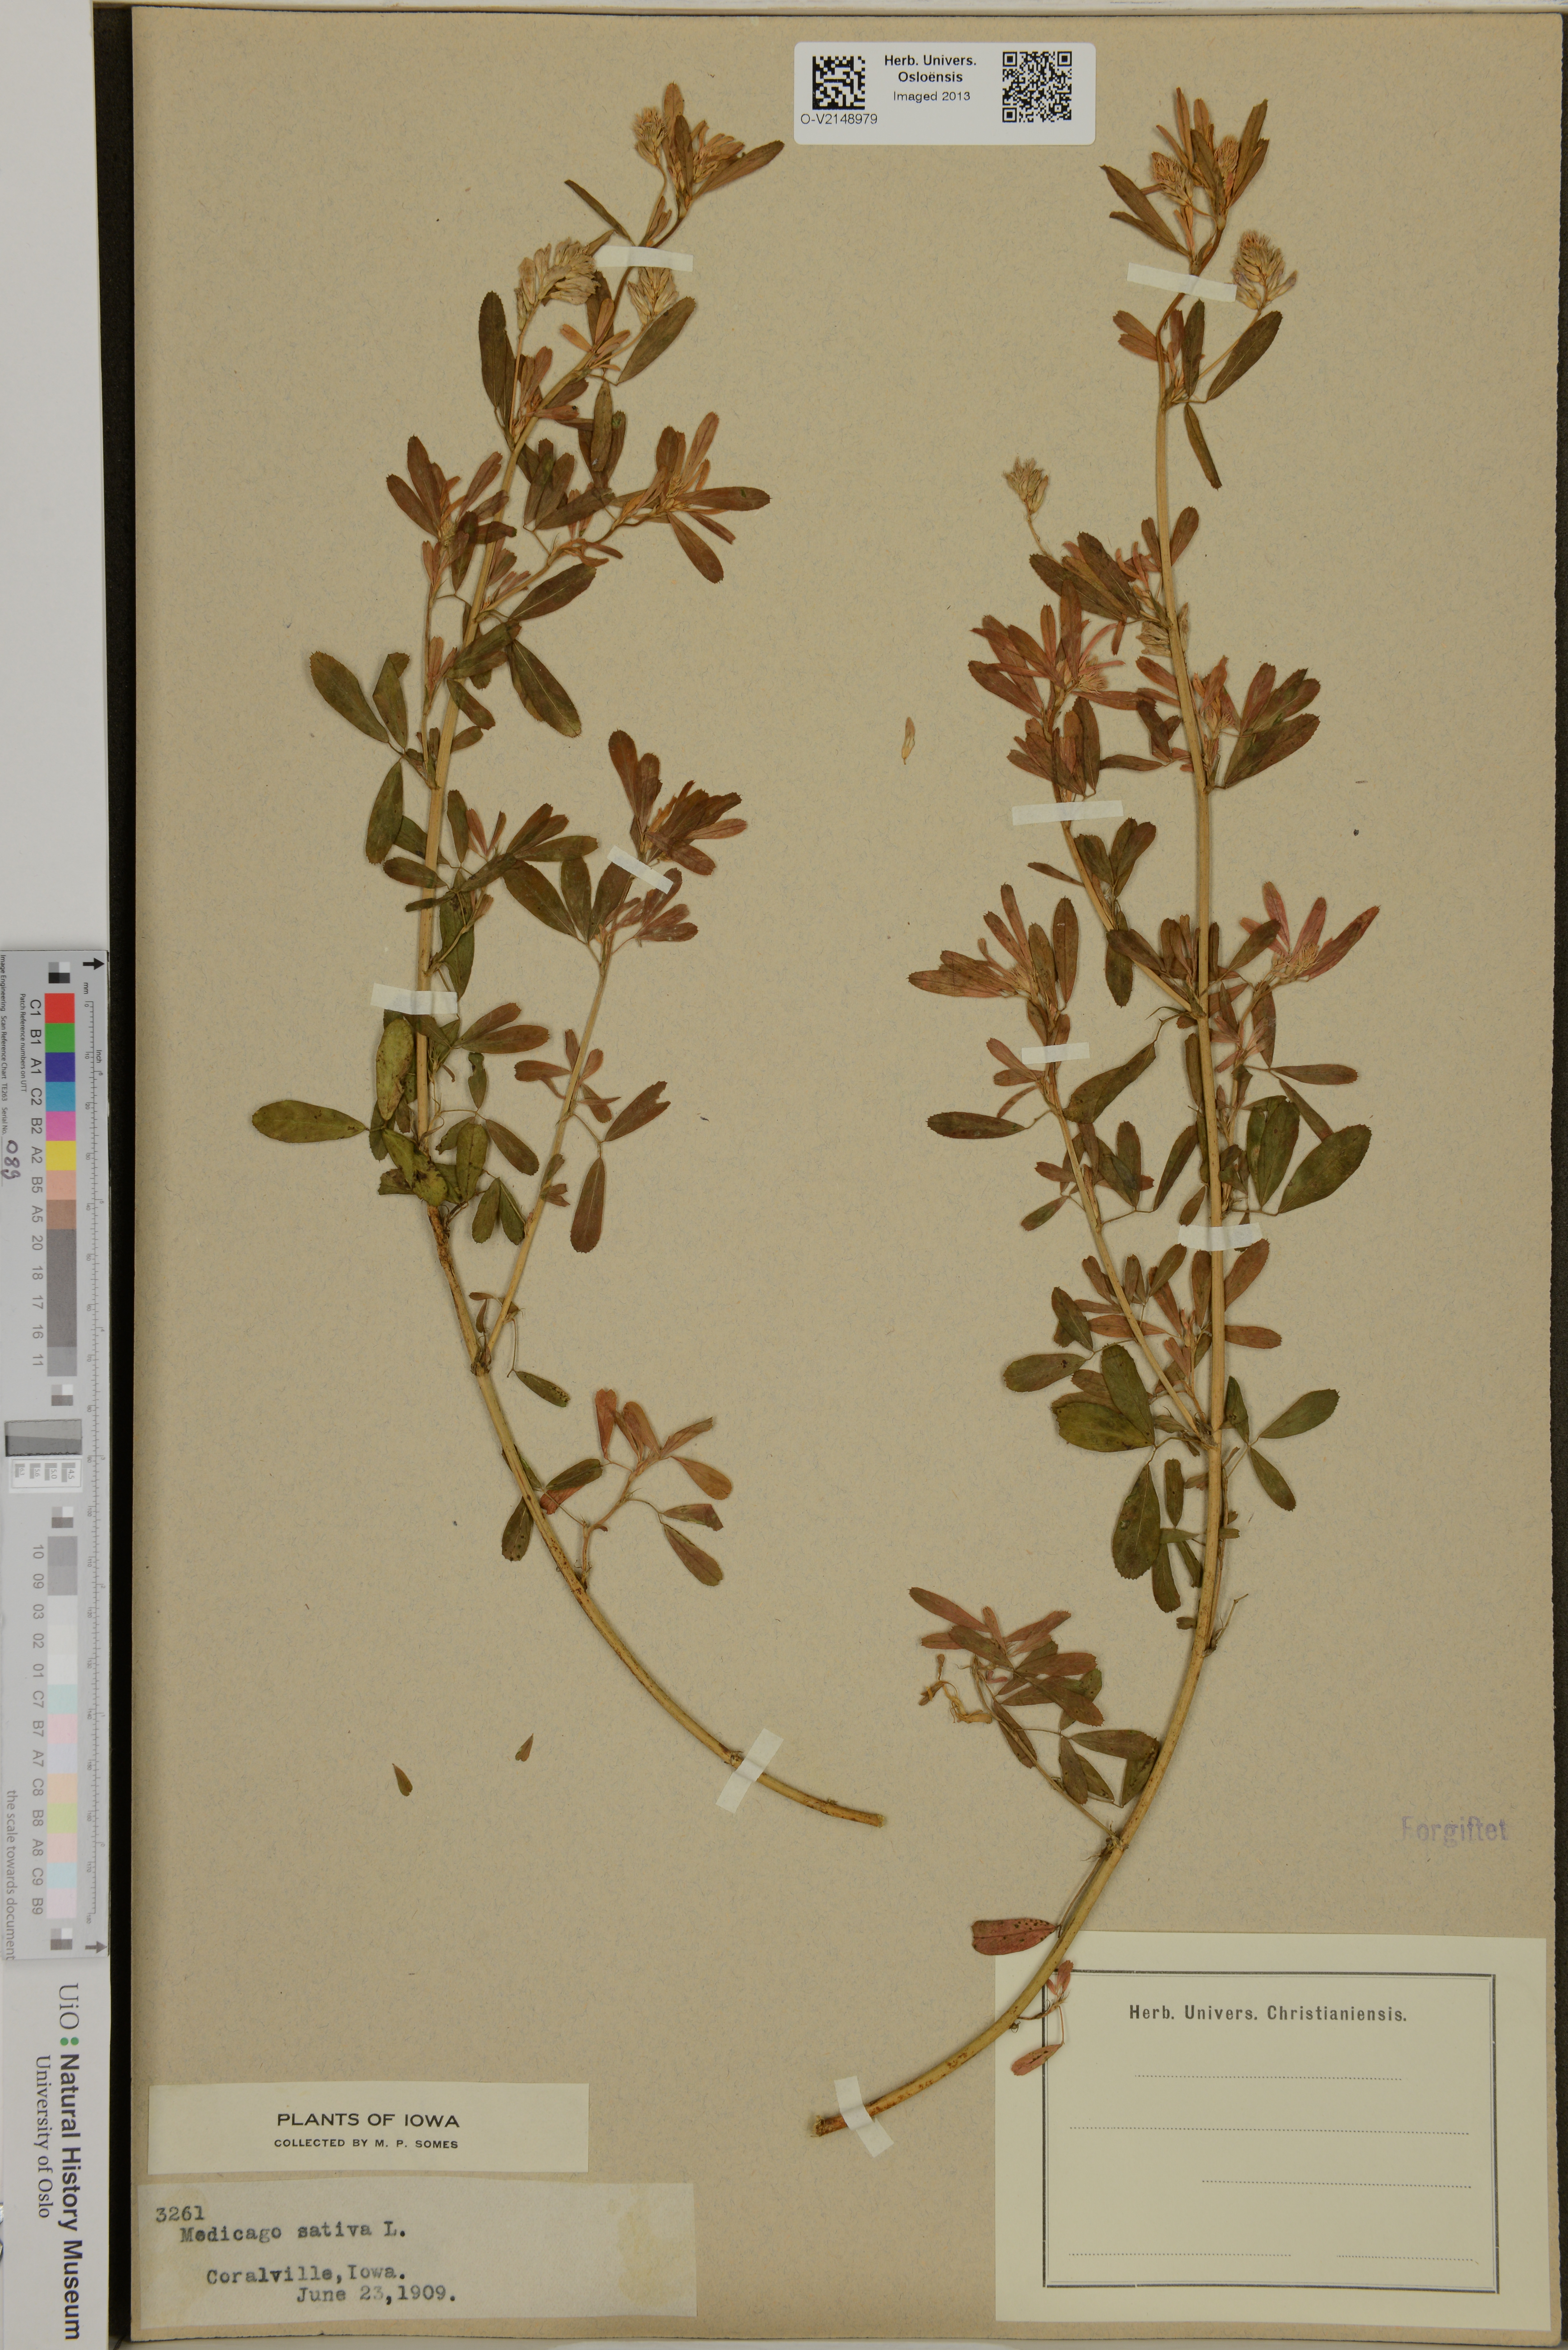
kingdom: Plantae
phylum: Tracheophyta
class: Magnoliopsida
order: Fabales
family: Fabaceae
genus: Medicago
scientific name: Medicago sativa
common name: Alfalfa
